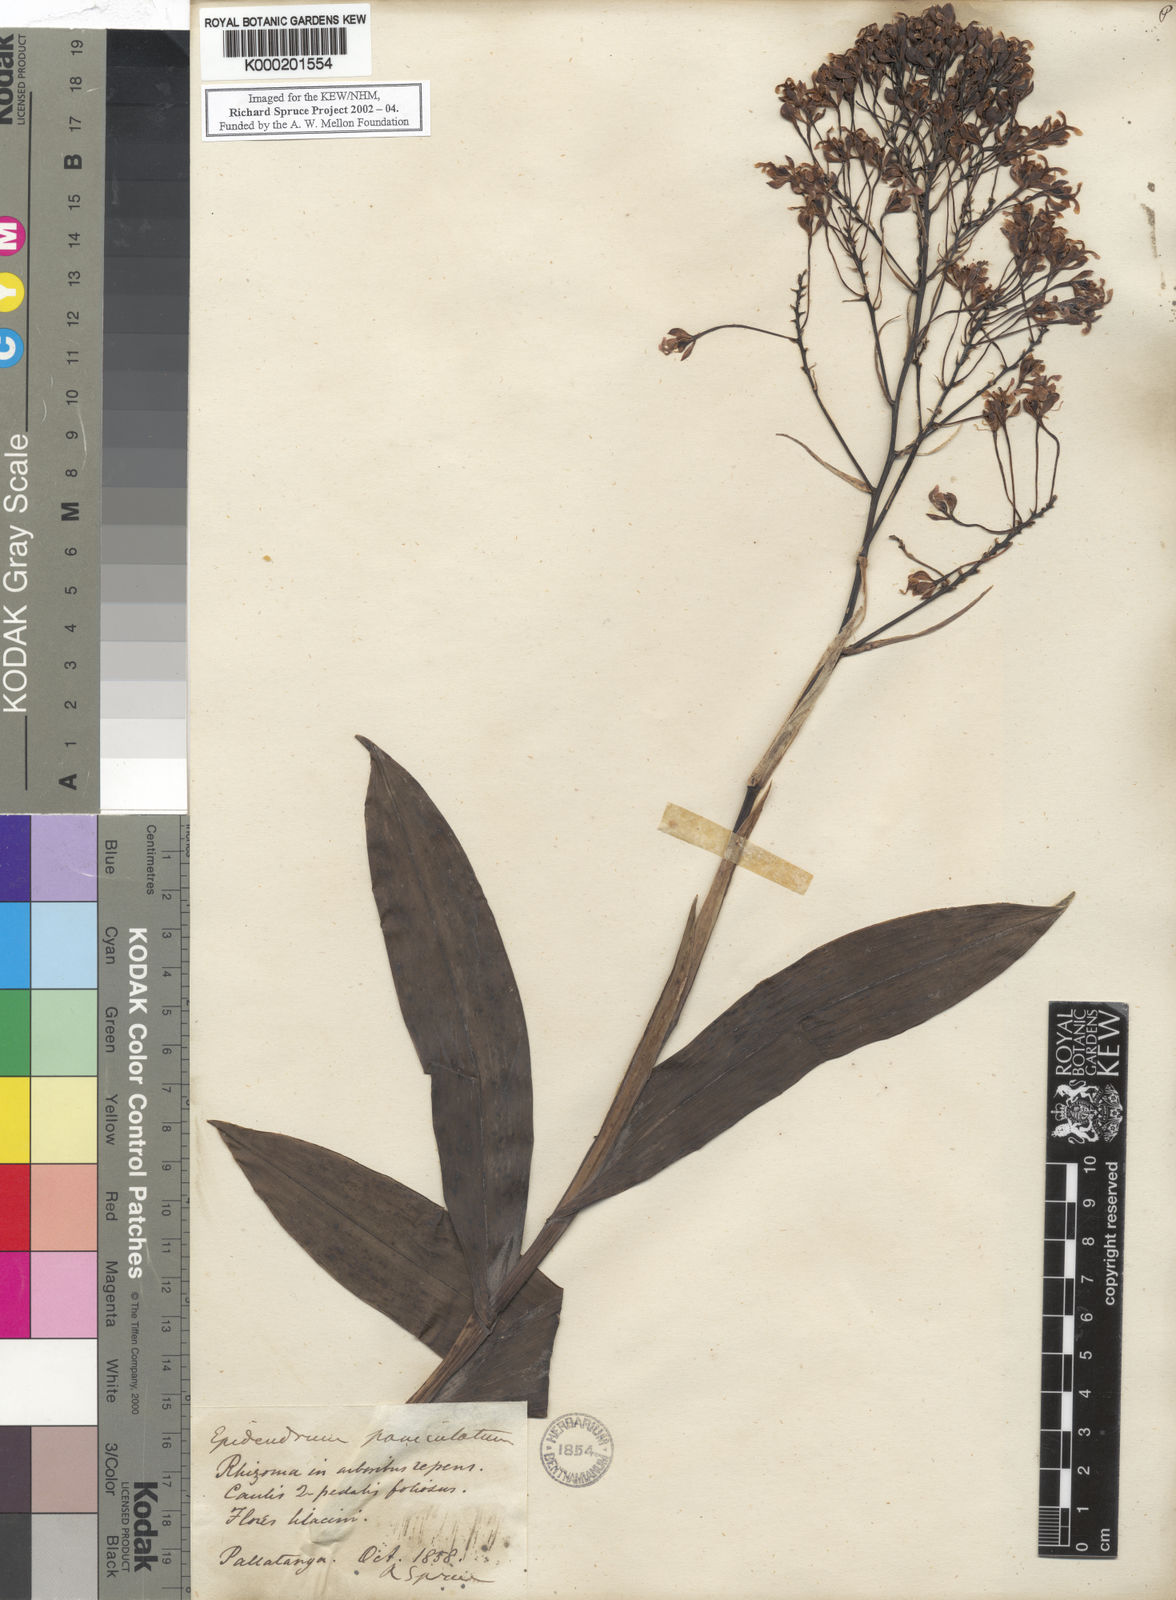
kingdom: Plantae
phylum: Tracheophyta
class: Liliopsida
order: Asparagales
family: Orchidaceae
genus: Epidendrum
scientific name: Epidendrum atacazoicum
